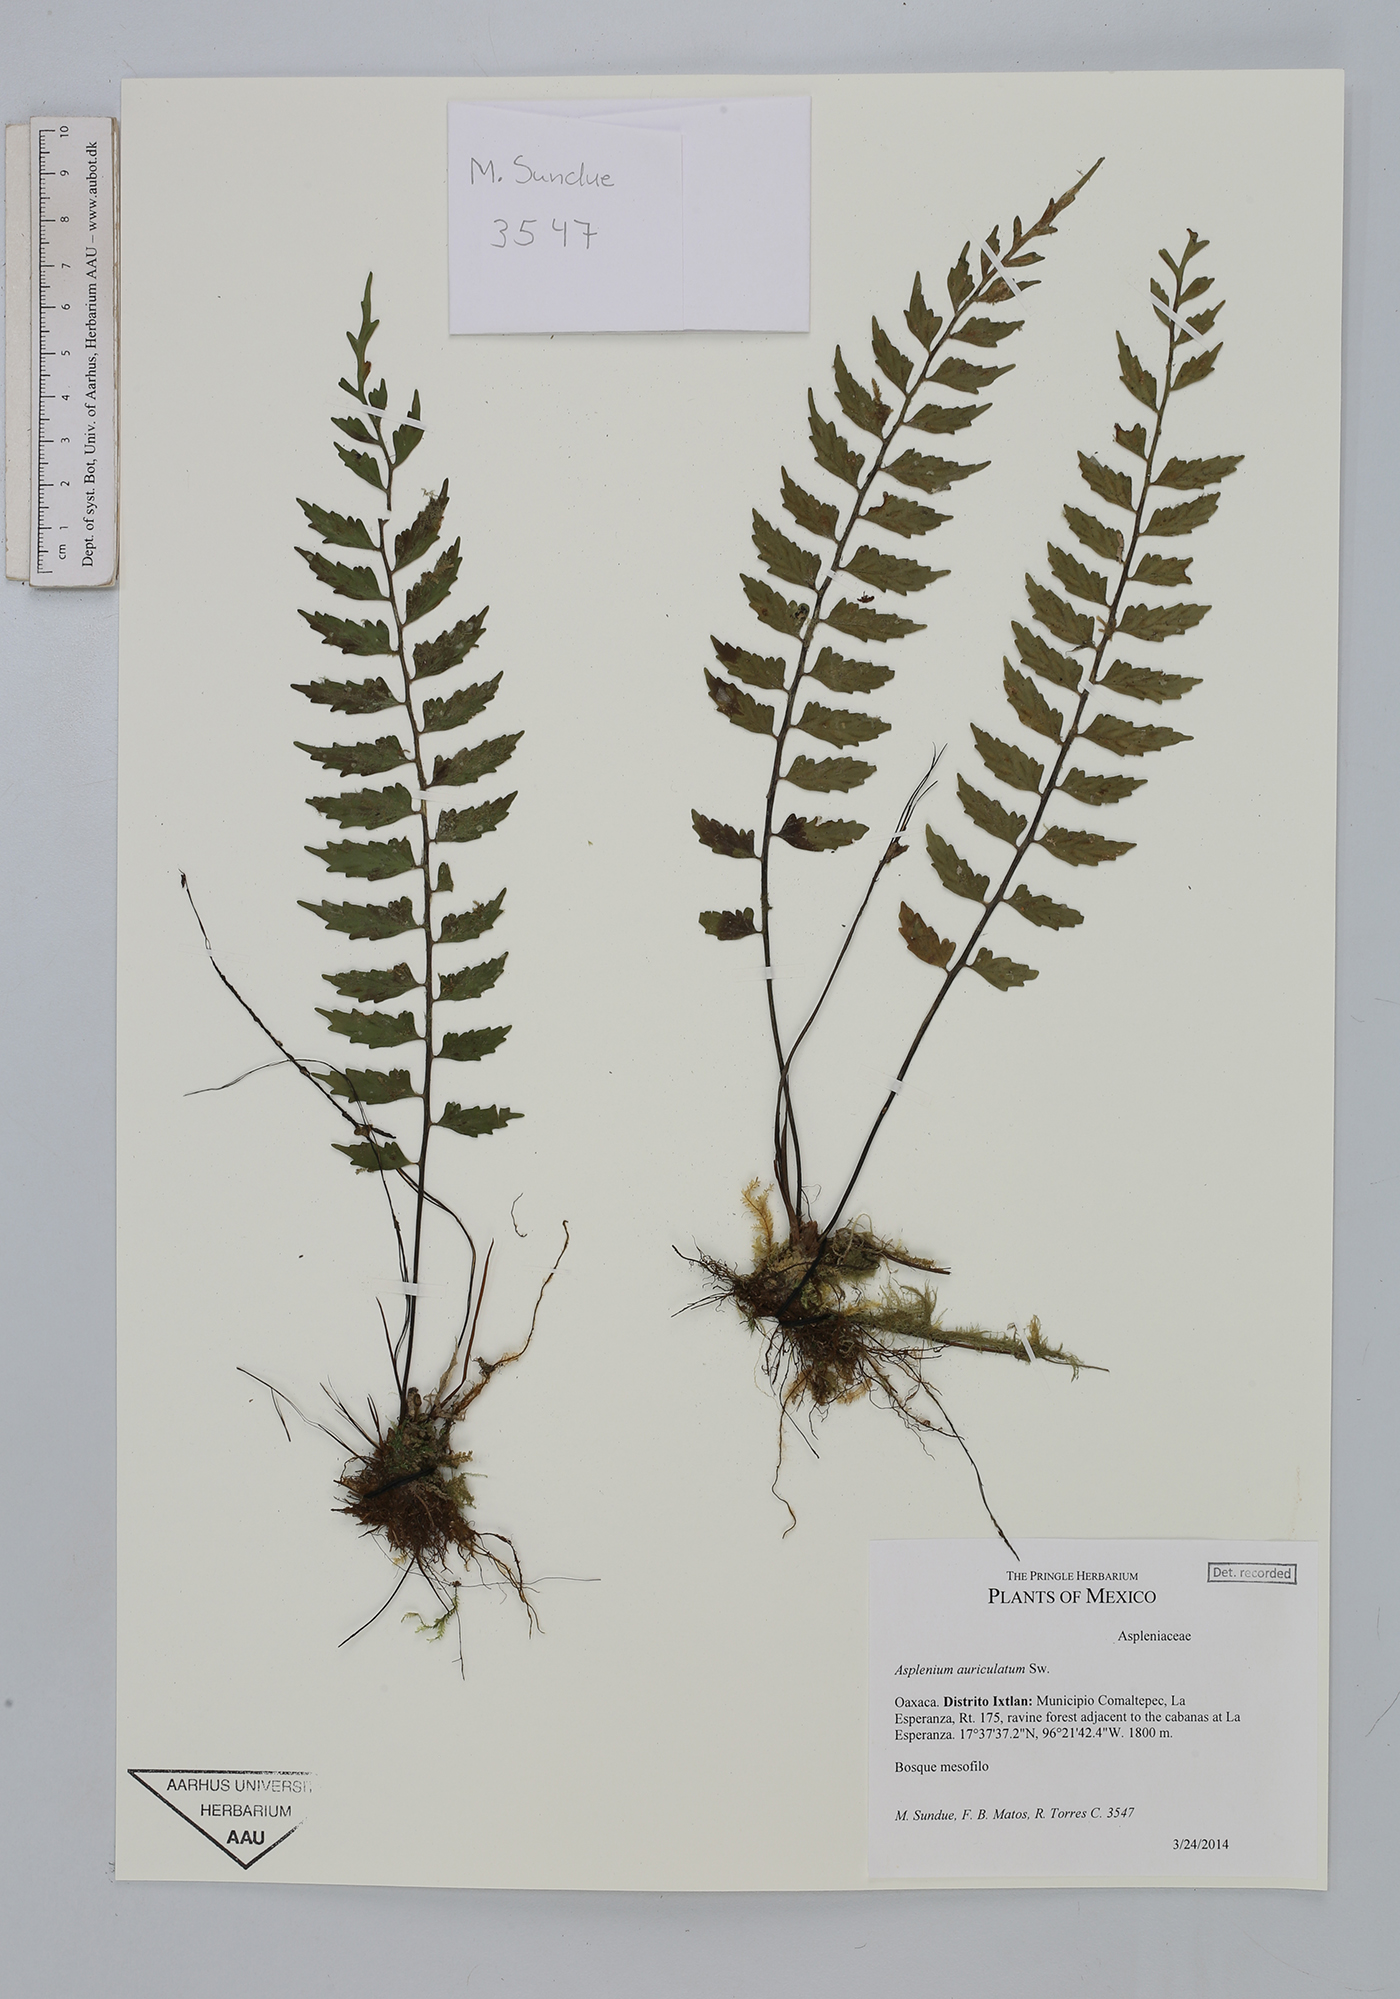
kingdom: Plantae
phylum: Tracheophyta
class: Polypodiopsida
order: Polypodiales
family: Aspleniaceae
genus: Asplenium
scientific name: Asplenium auriculatum
